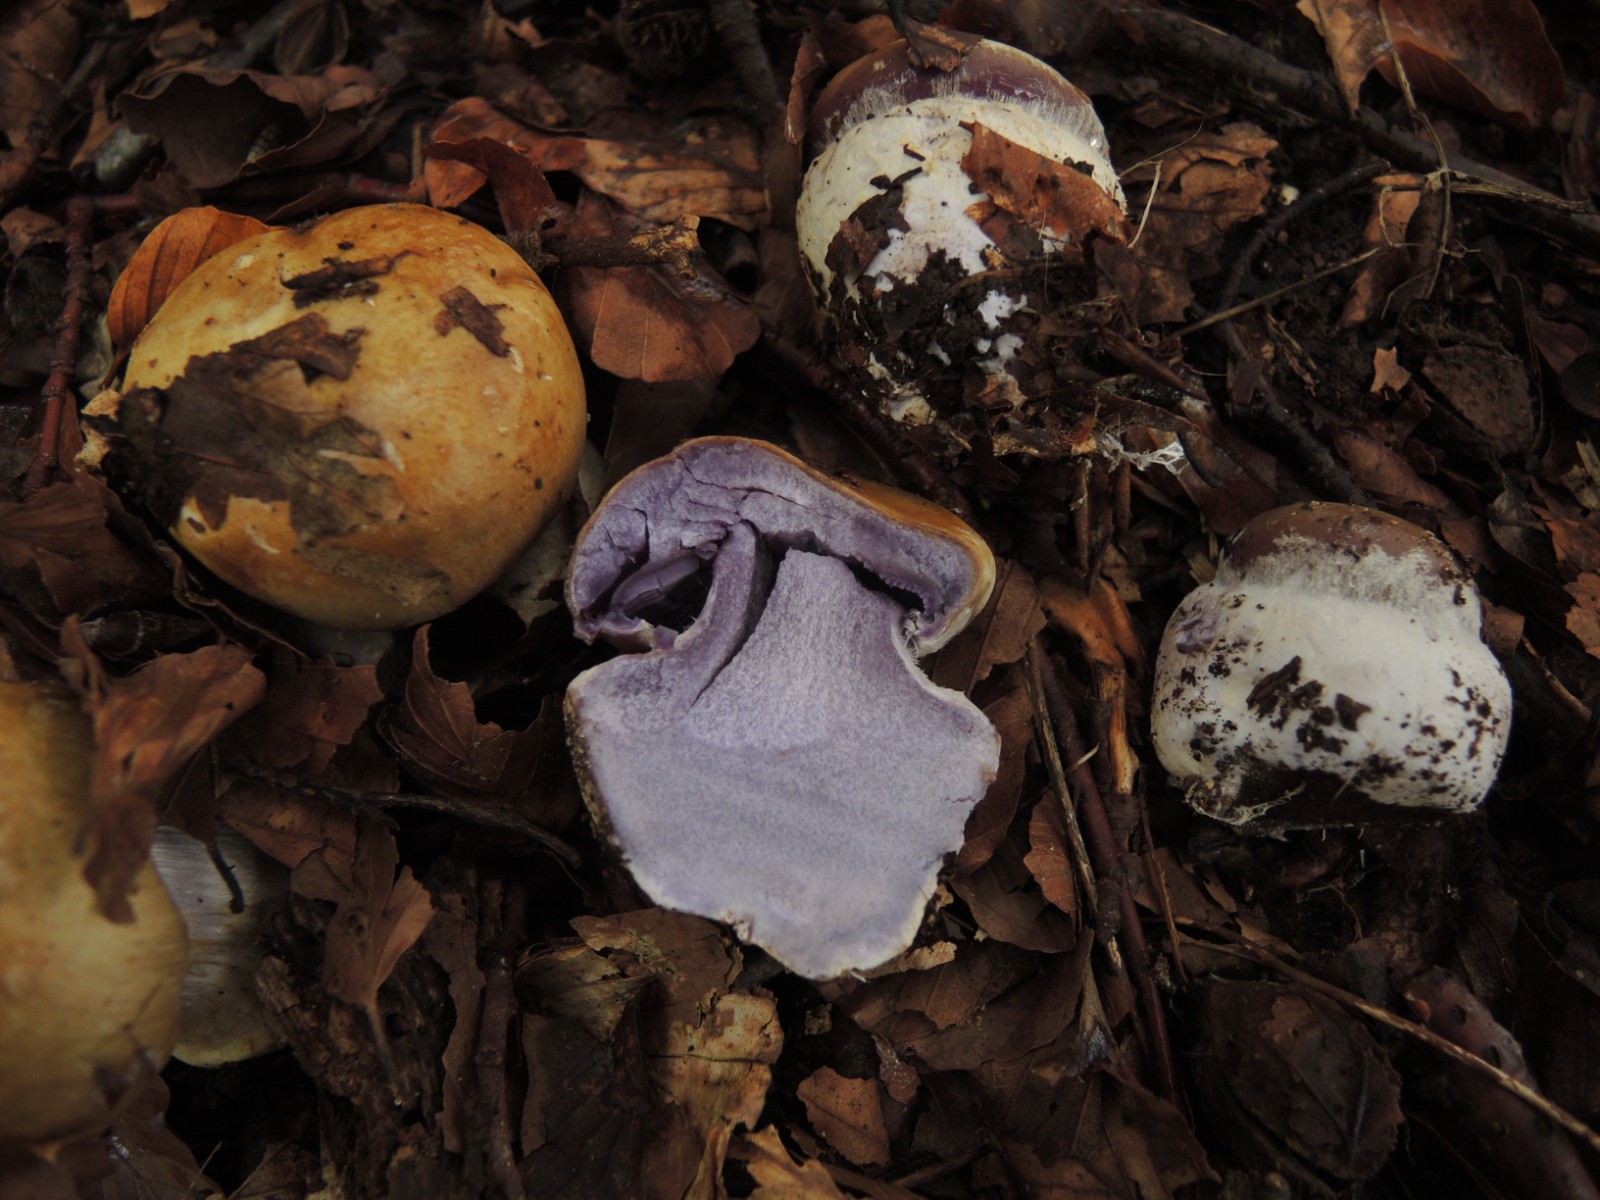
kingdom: Fungi
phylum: Basidiomycota
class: Agaricomycetes
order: Agaricales
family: Cortinariaceae
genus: Cortinarius
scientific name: Cortinarius anserinus
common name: bøge-slørhat
